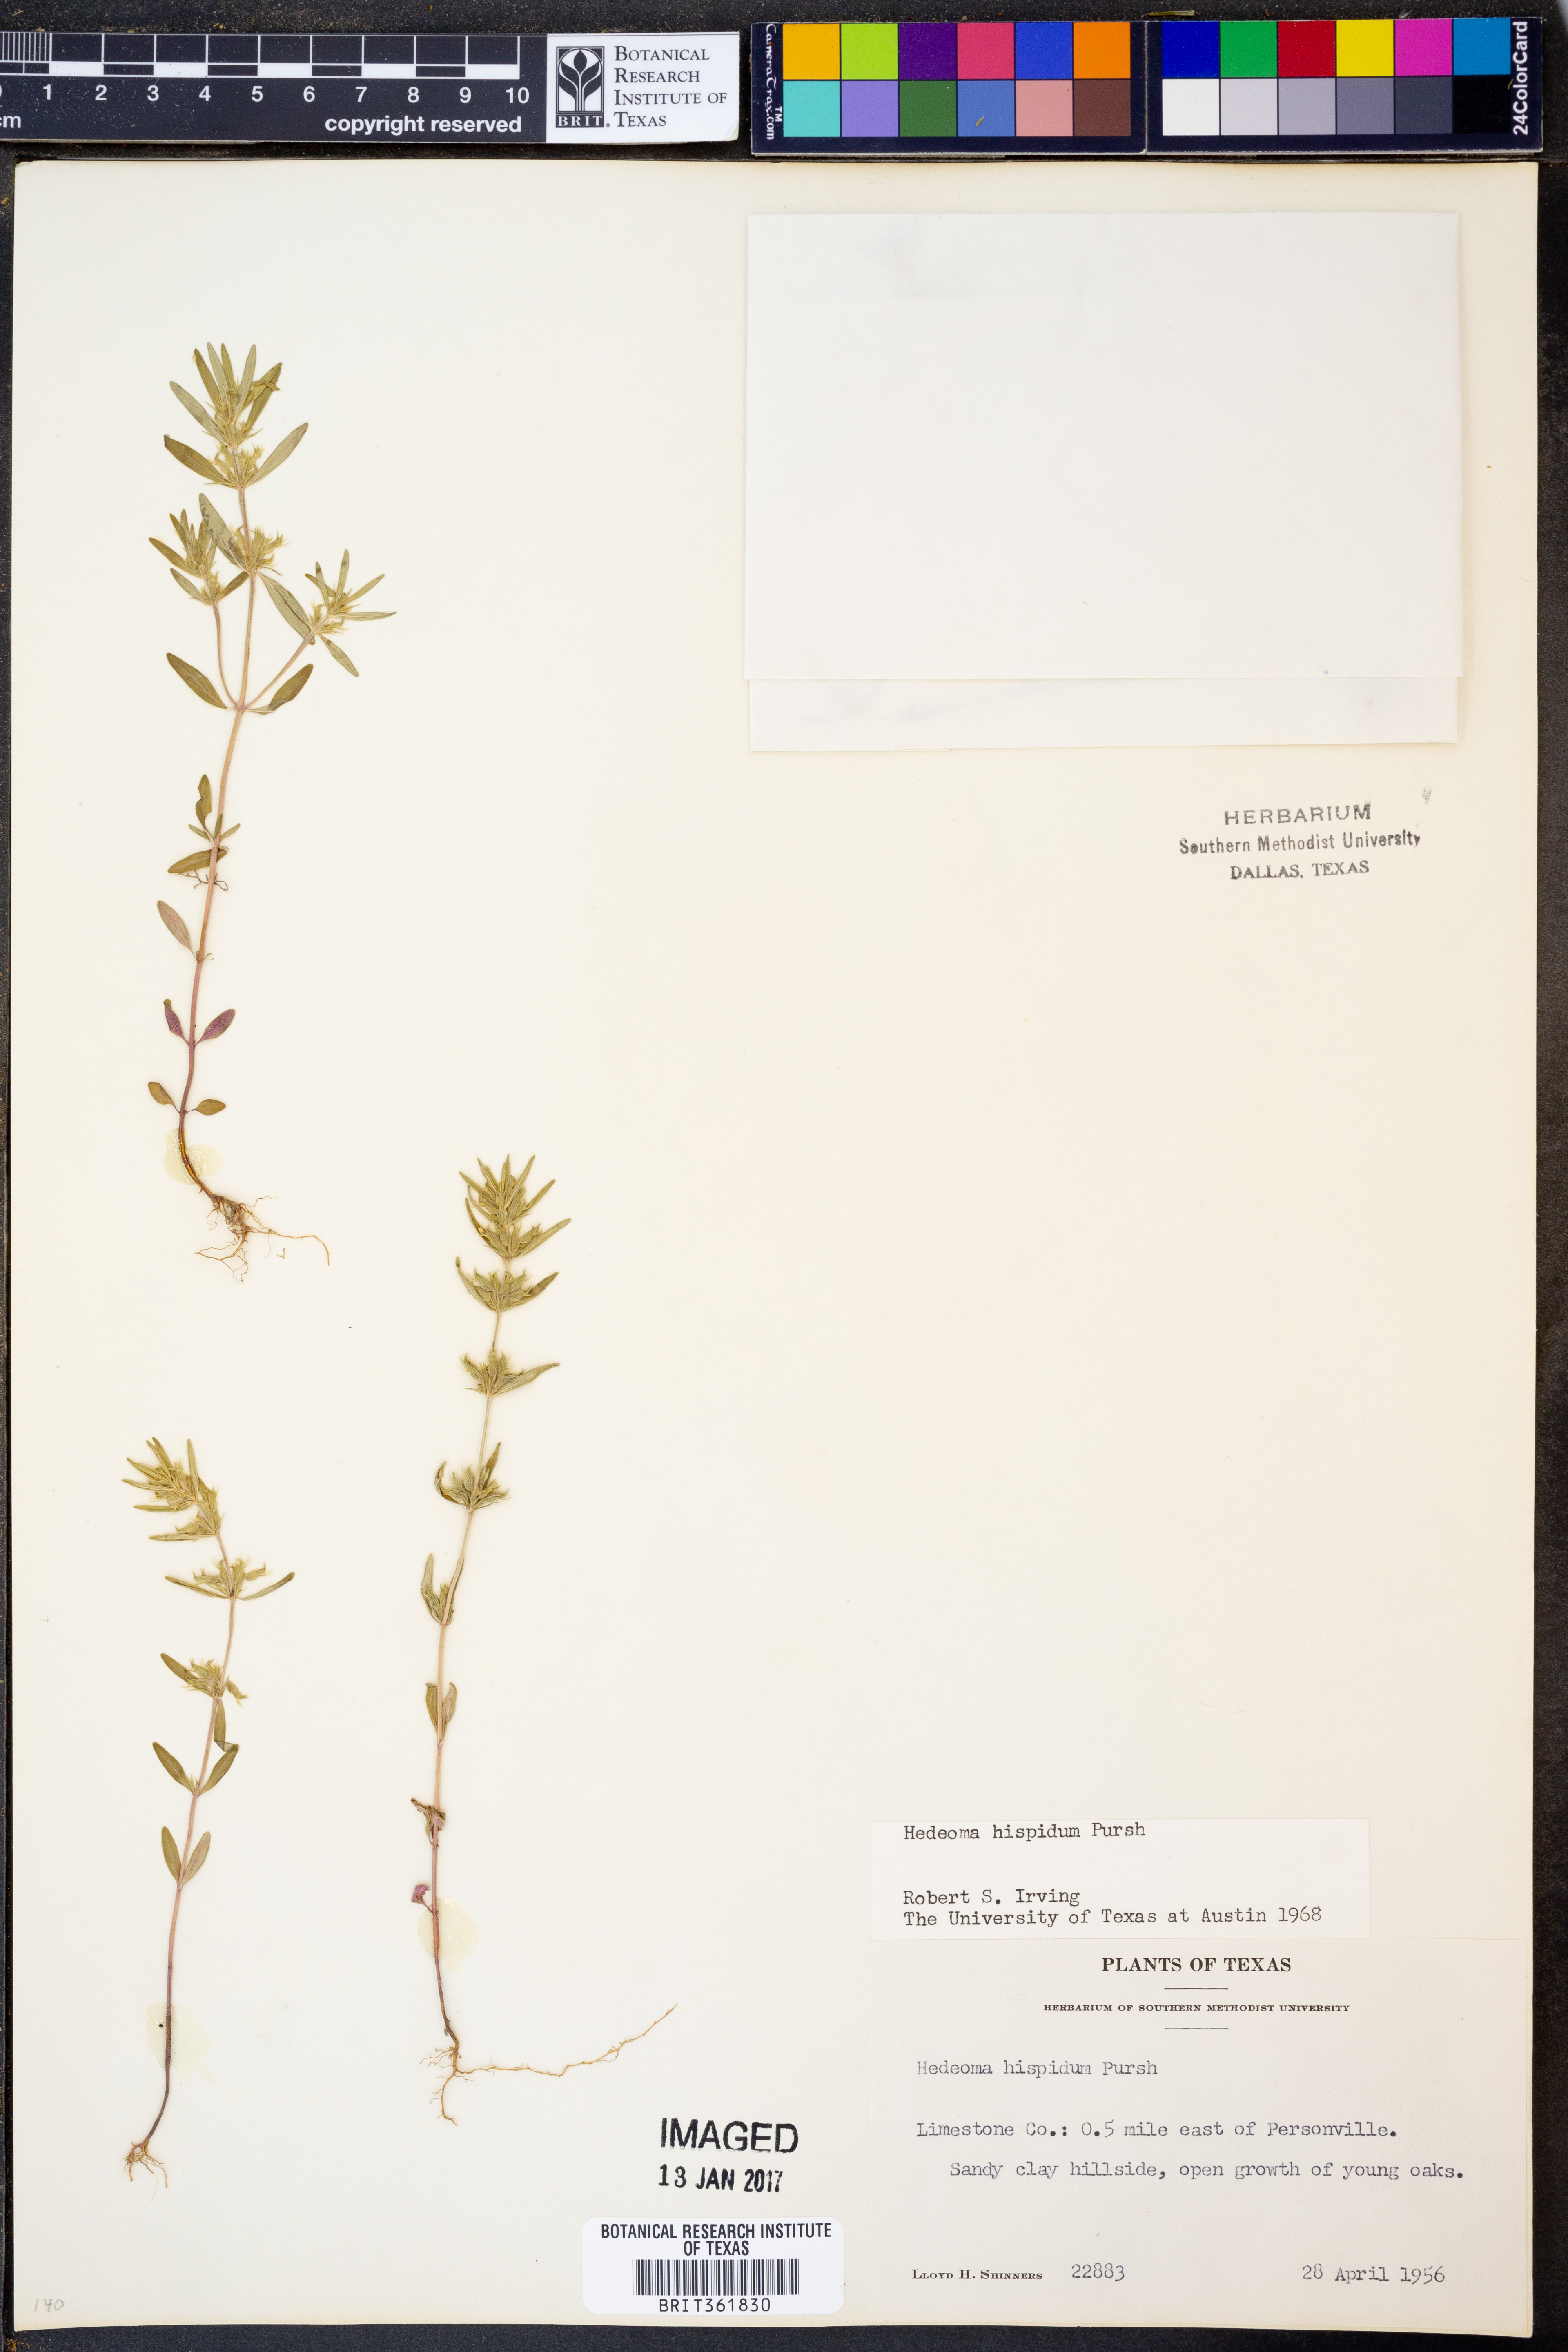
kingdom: Plantae
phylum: Tracheophyta
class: Magnoliopsida
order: Lamiales
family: Lamiaceae
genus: Hedeoma
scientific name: Hedeoma hispida
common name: Mock pennyroyal
